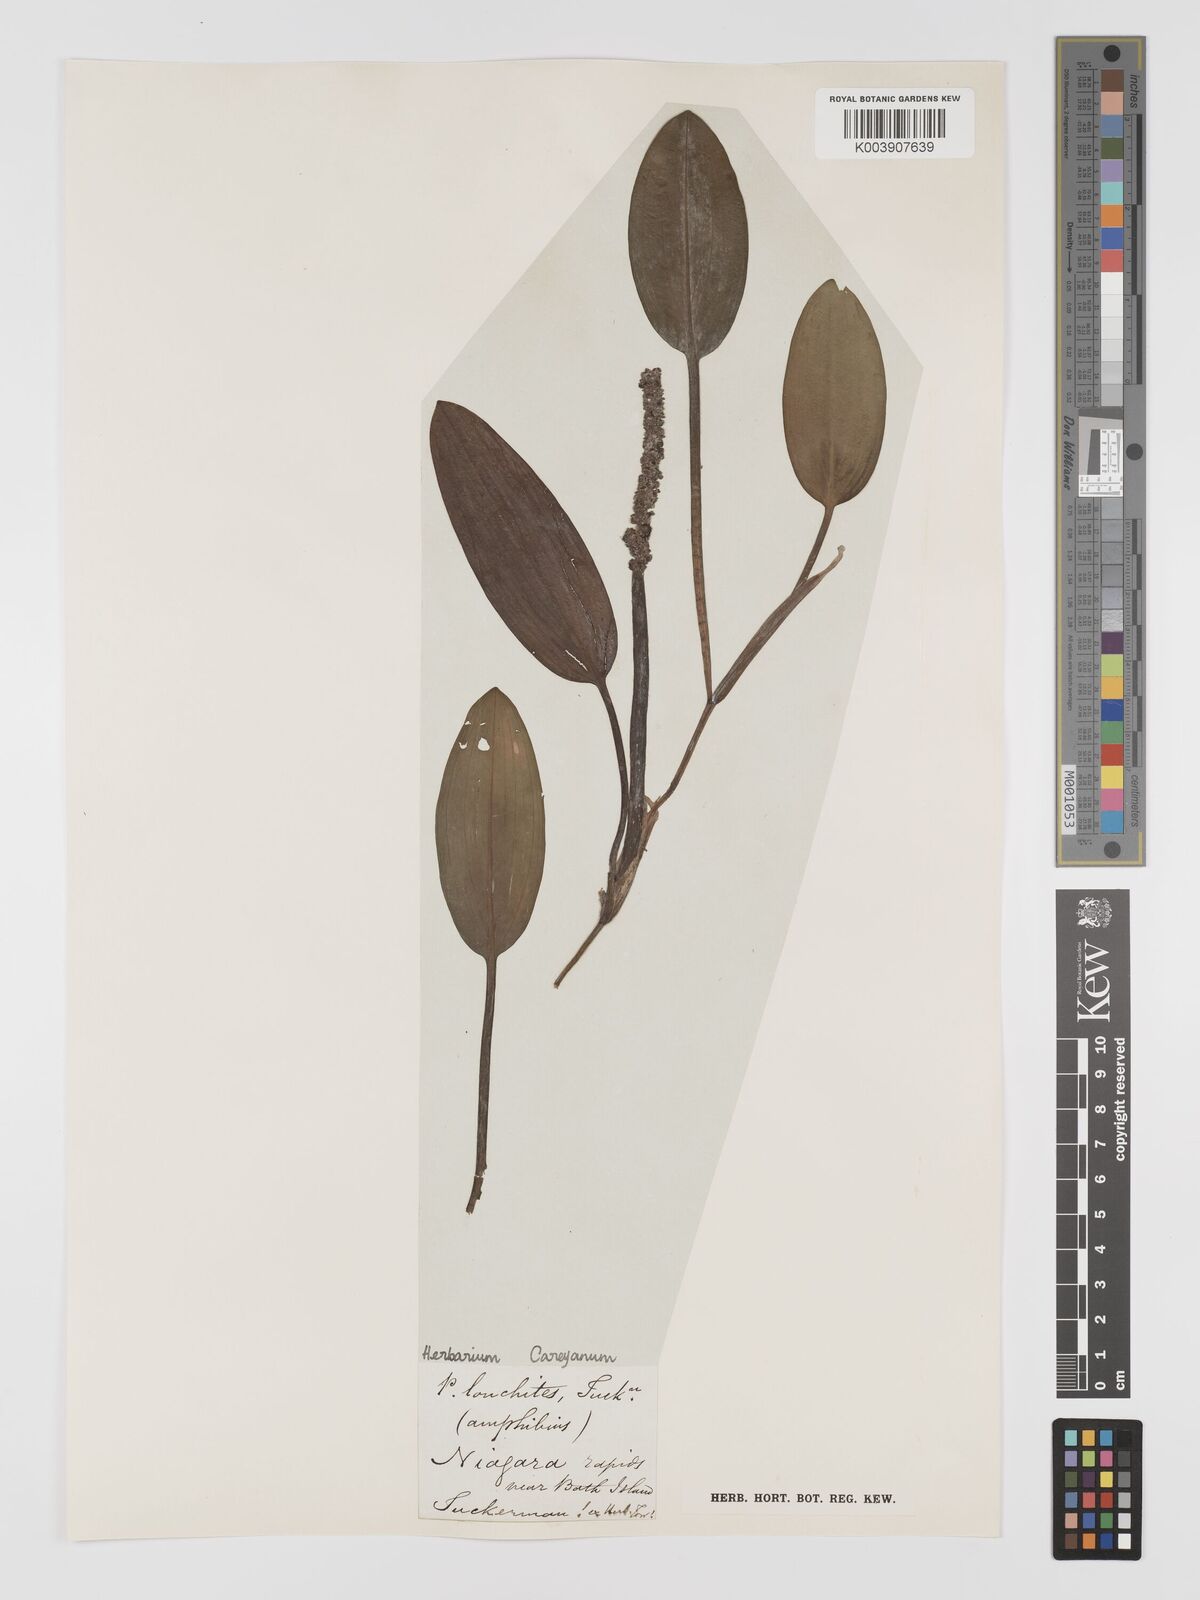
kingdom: Plantae
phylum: Tracheophyta
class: Liliopsida
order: Alismatales
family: Potamogetonaceae
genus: Potamogeton
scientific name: Potamogeton nodosus
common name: Loddon pondweed
